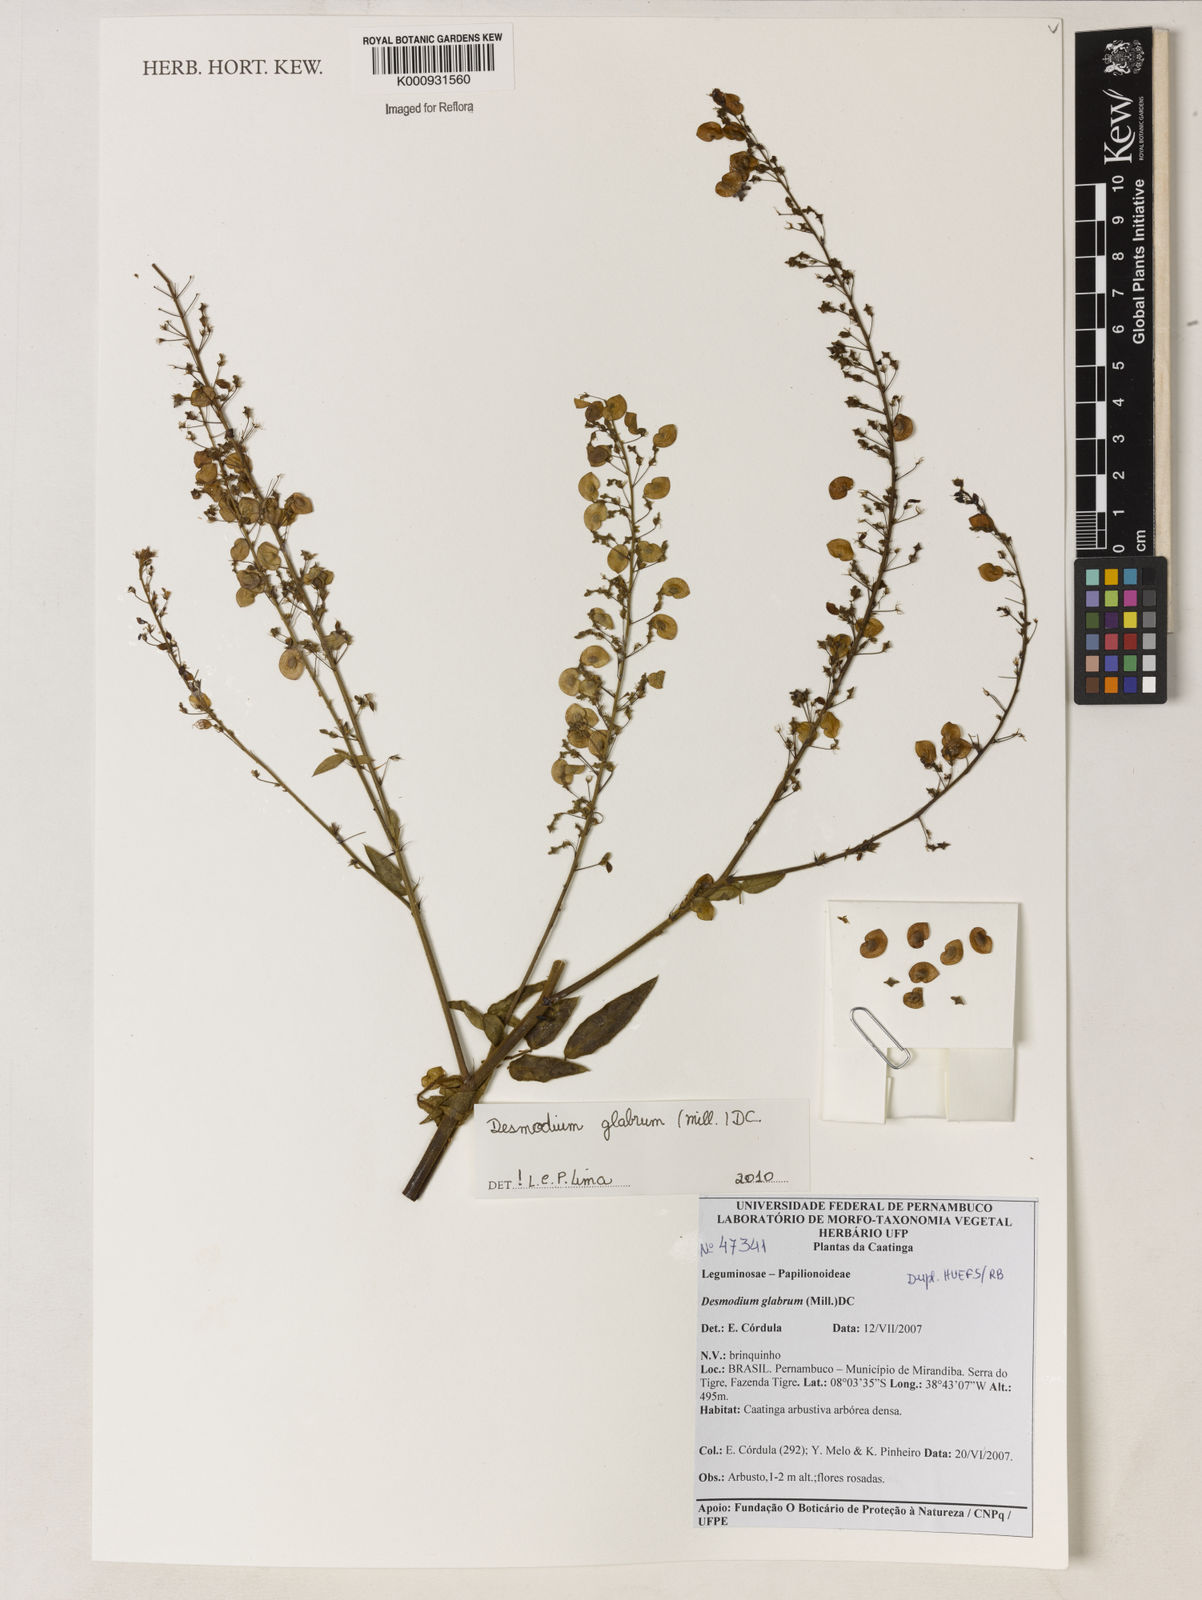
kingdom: Plantae
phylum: Tracheophyta
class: Magnoliopsida
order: Fabales
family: Fabaceae
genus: Desmodium
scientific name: Desmodium glabrum
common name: Zarzabacoa dulce
